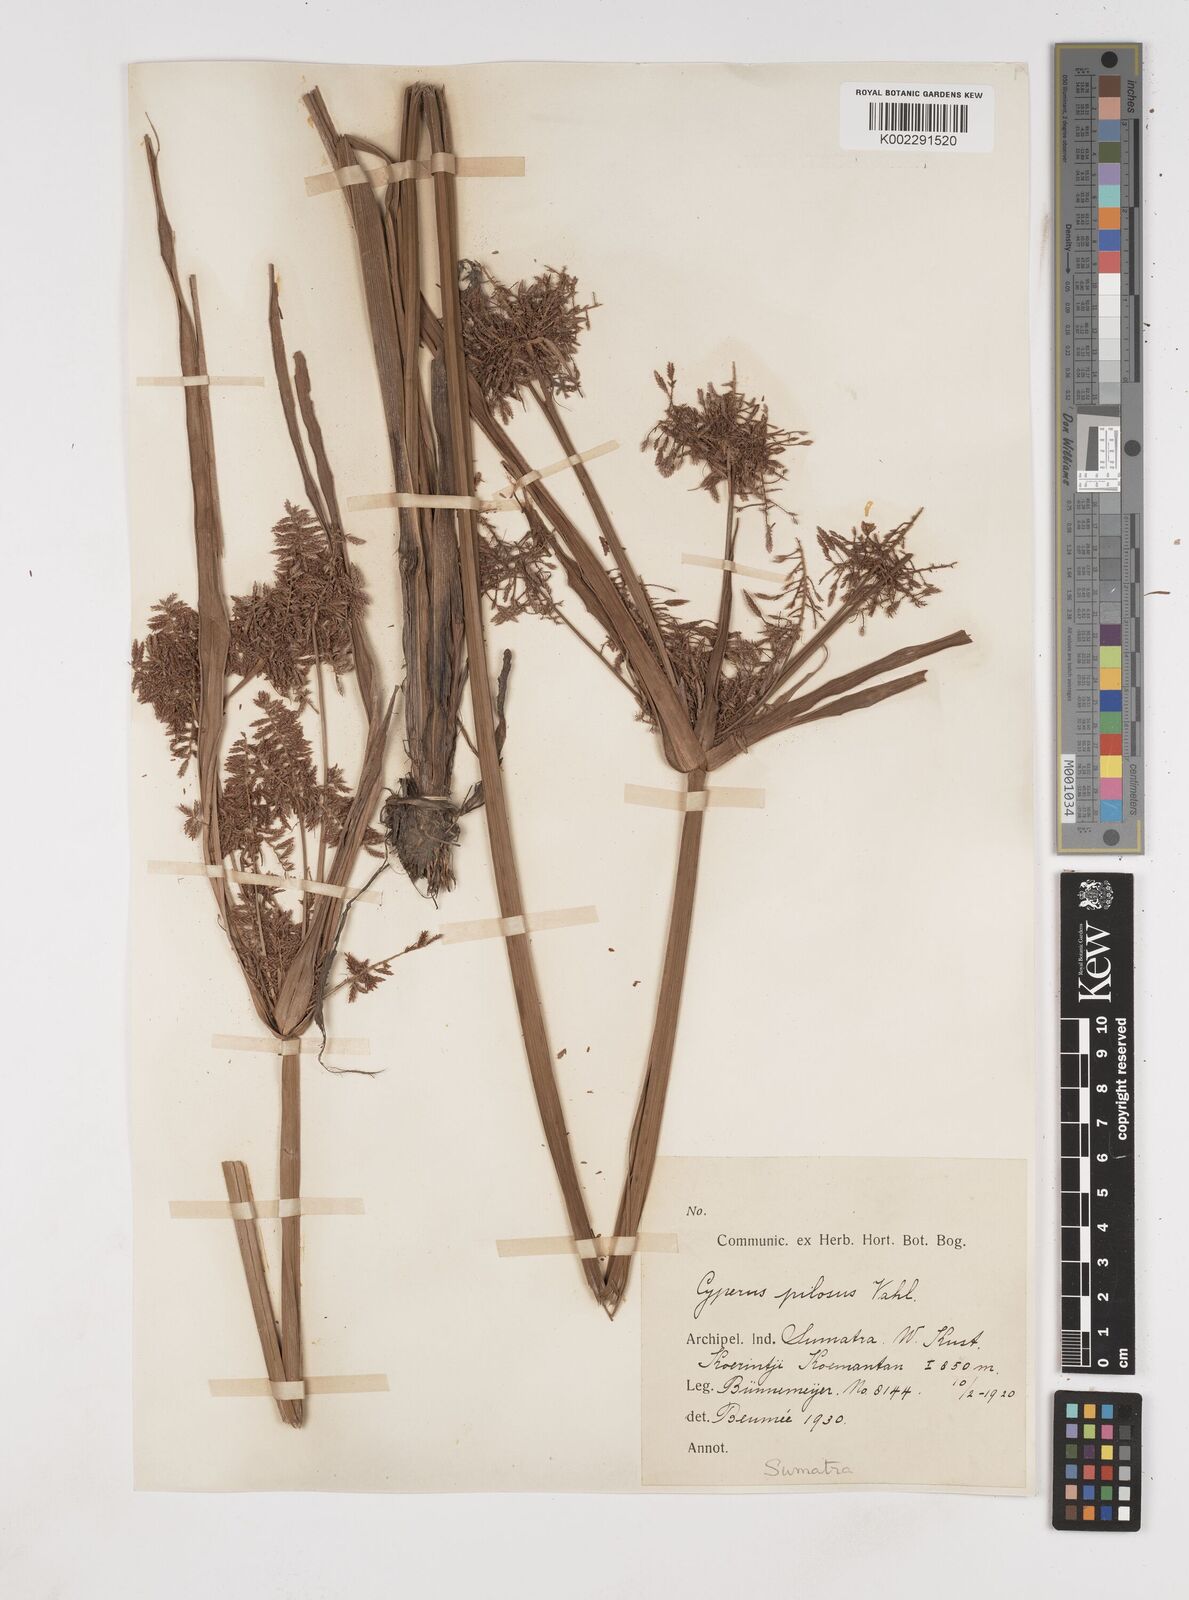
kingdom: Plantae
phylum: Tracheophyta
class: Liliopsida
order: Poales
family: Cyperaceae
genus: Cyperus
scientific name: Cyperus pilosus
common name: Fuzzy flatsedge
